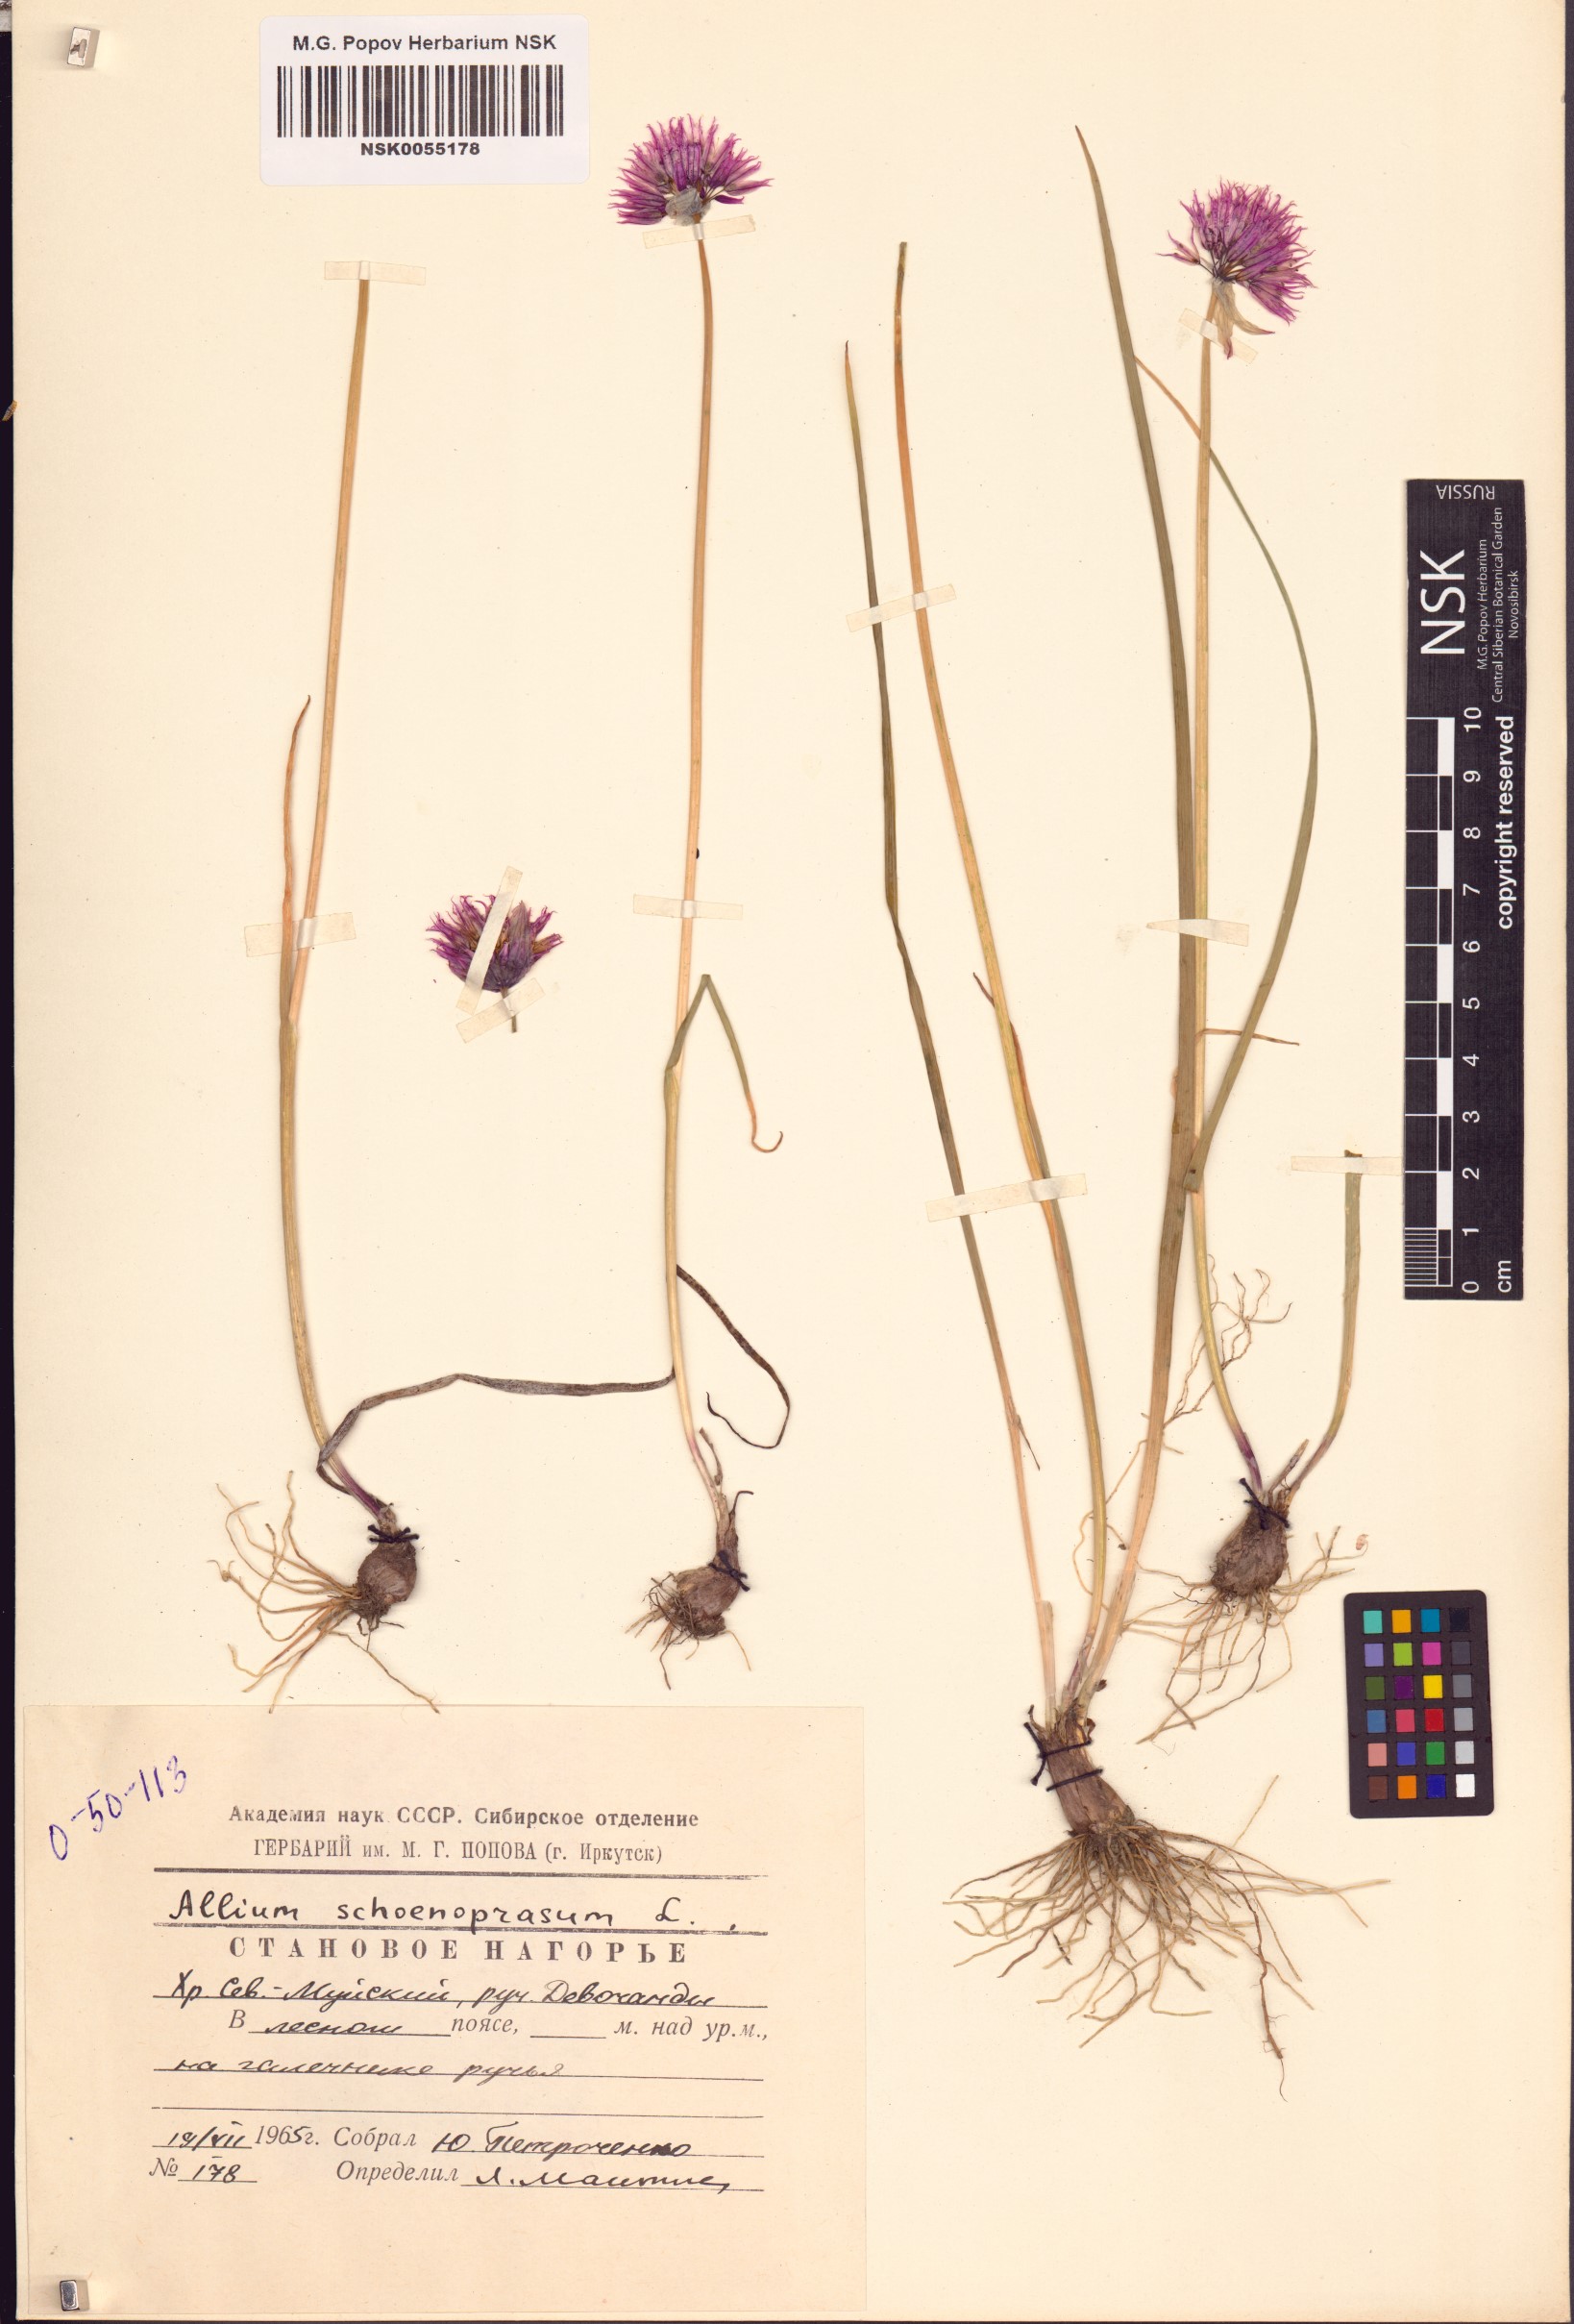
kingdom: Plantae
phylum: Tracheophyta
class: Liliopsida
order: Asparagales
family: Amaryllidaceae
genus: Allium
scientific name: Allium schoenoprasum
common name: Chives
